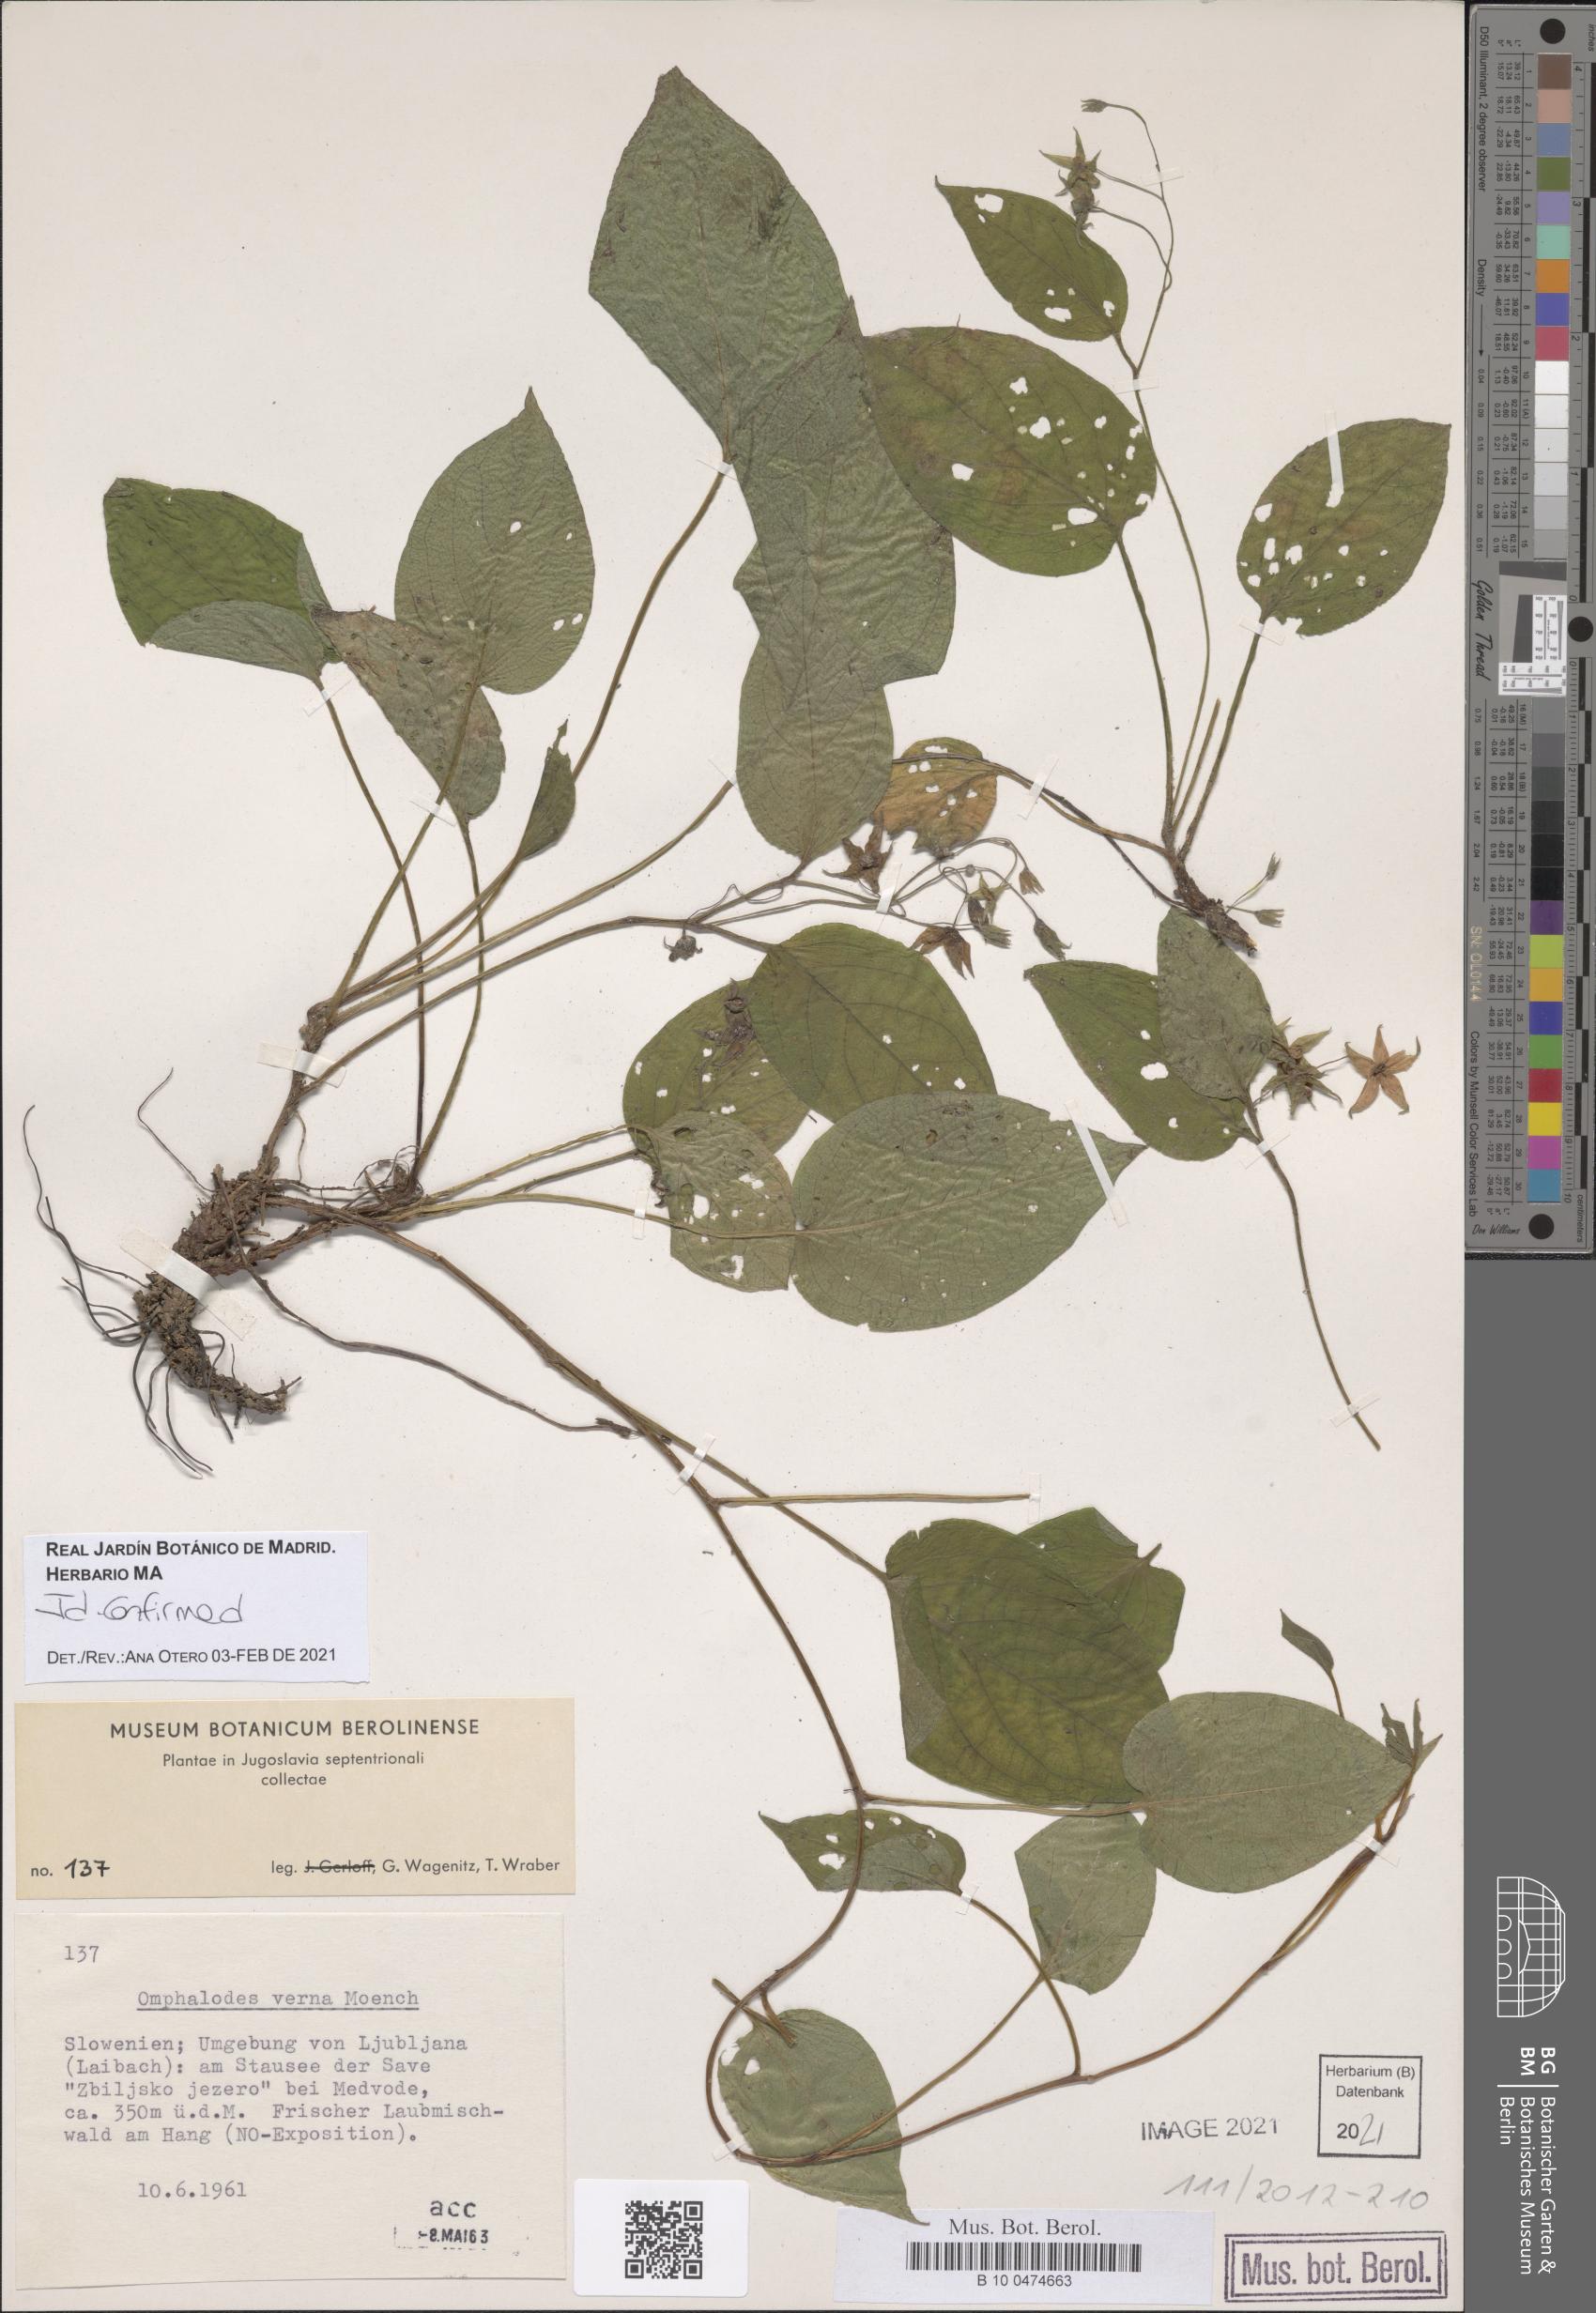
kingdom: Plantae
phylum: Tracheophyta
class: Magnoliopsida
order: Boraginales
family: Boraginaceae
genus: Omphalodes
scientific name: Omphalodes verna
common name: Blue-eyed-mary
